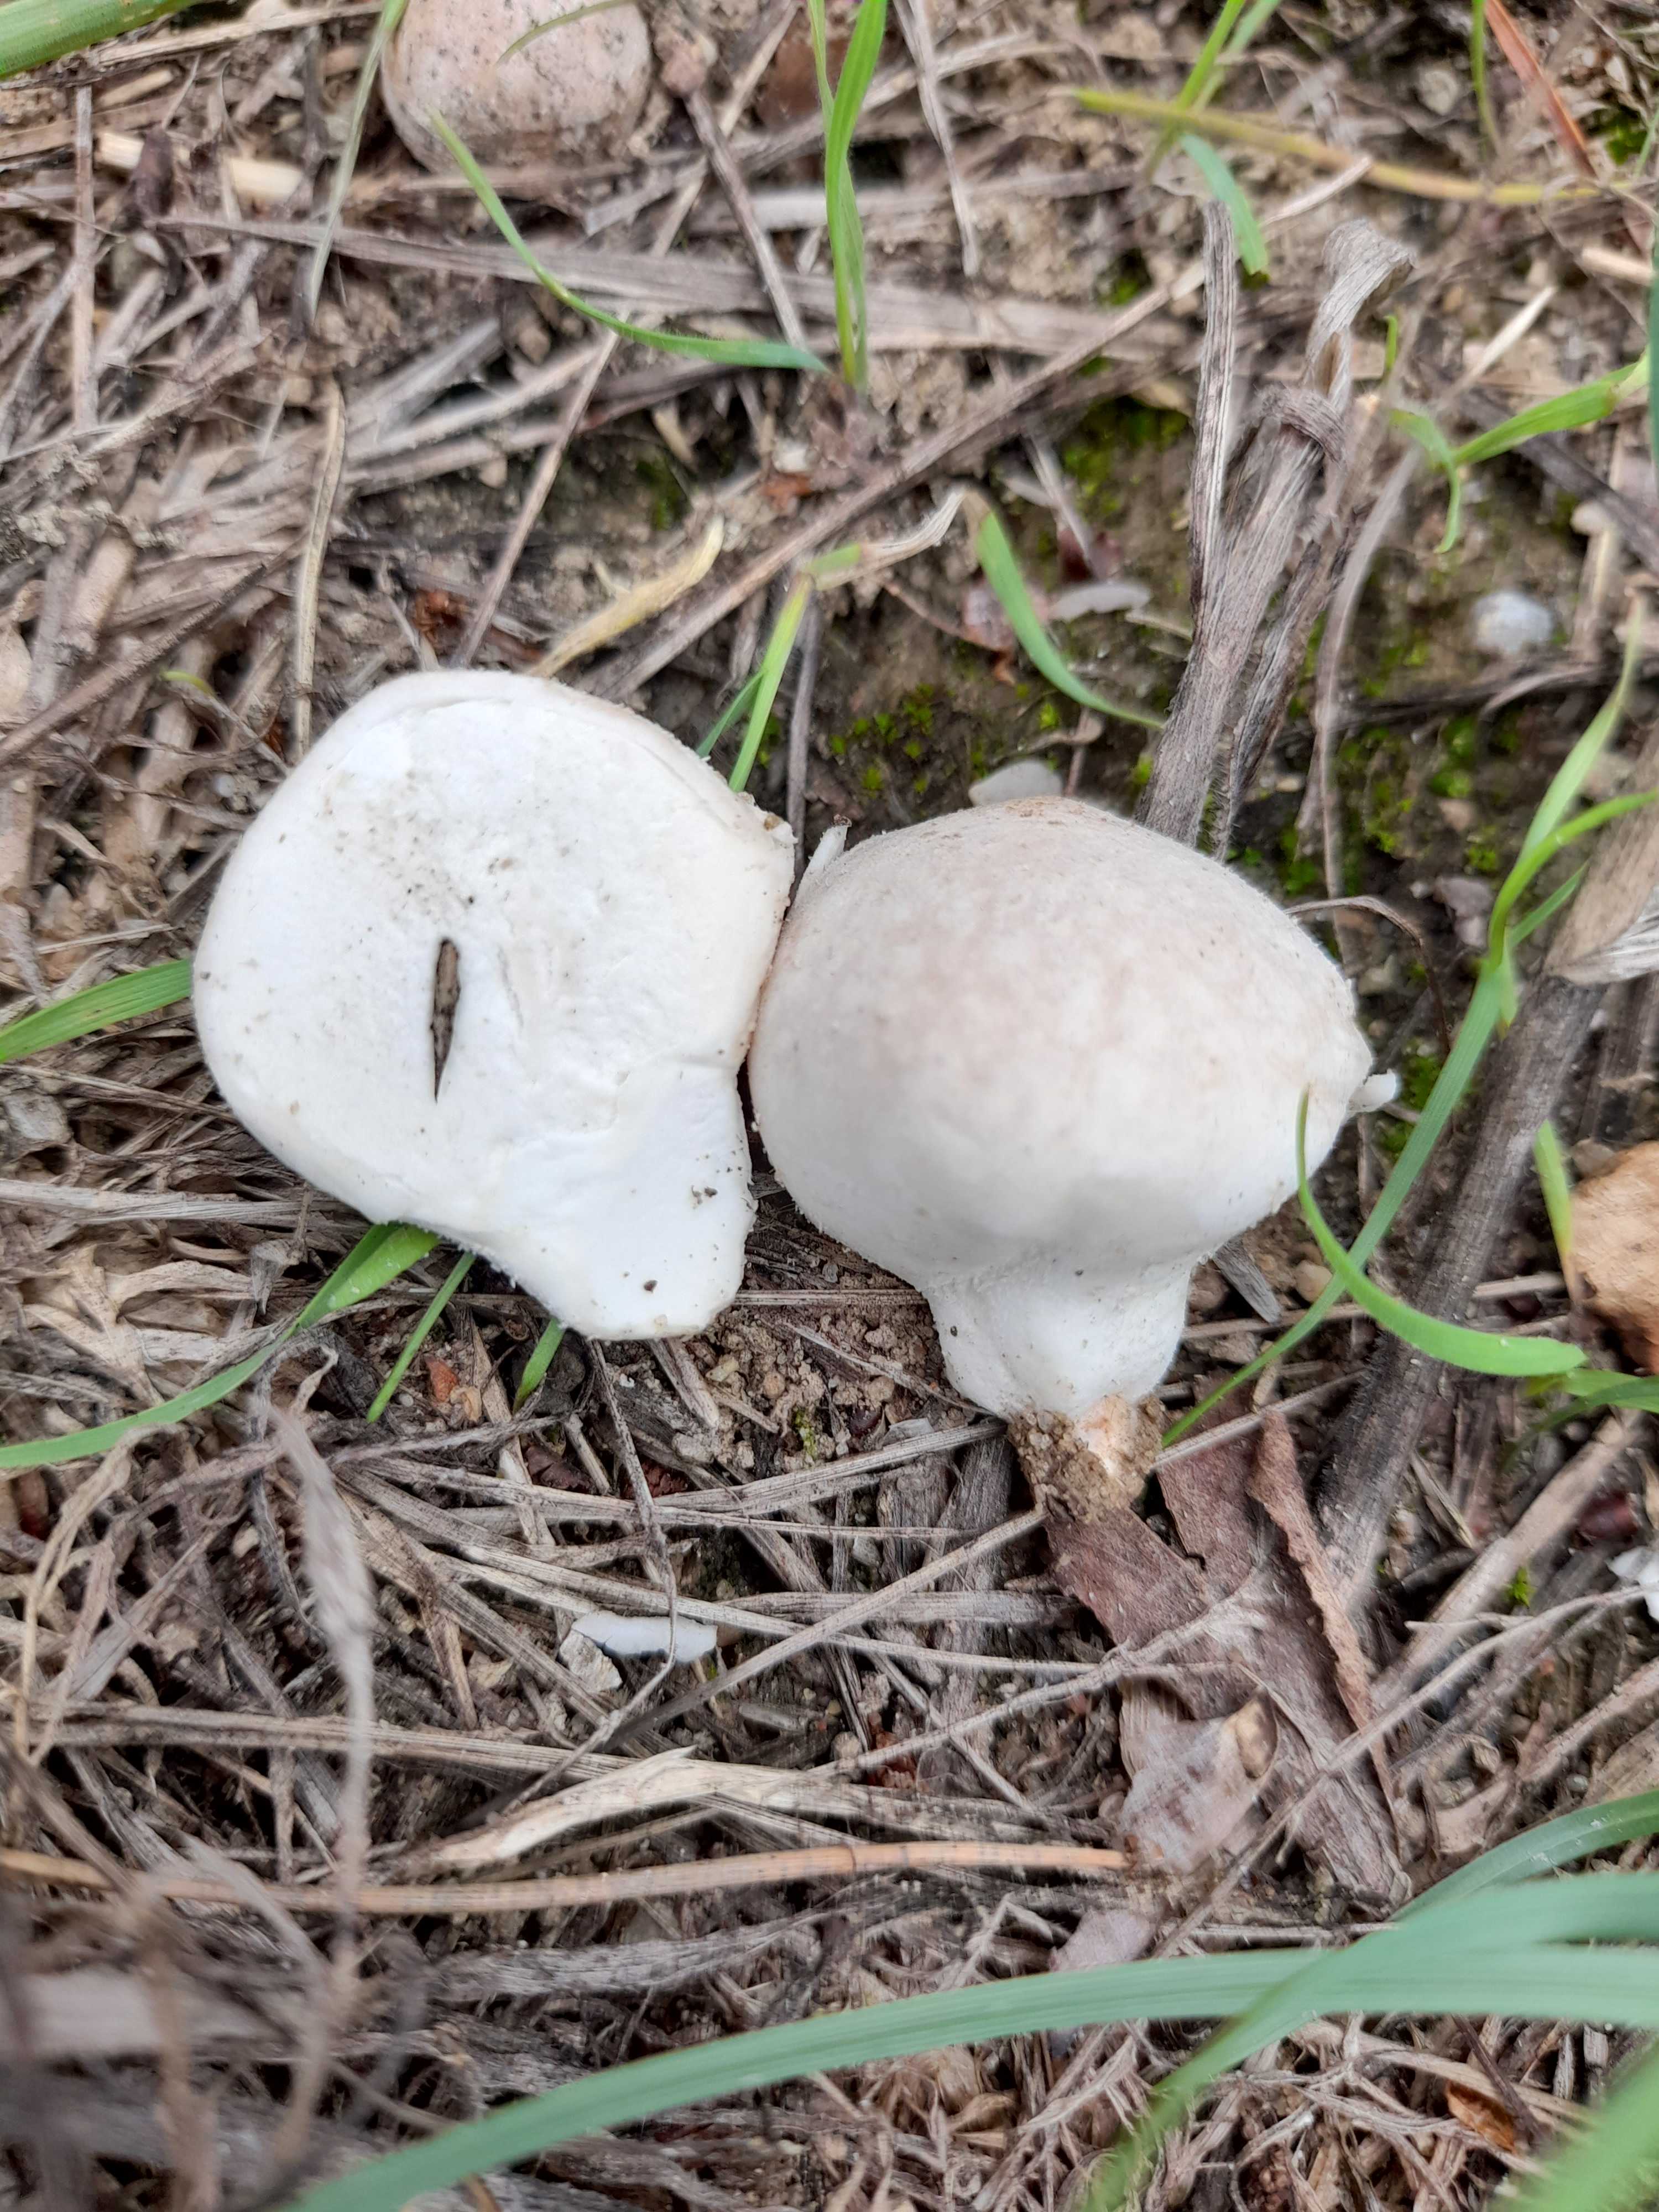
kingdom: Fungi
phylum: Basidiomycota
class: Agaricomycetes
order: Agaricales
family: Lycoperdaceae
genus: Lycoperdon
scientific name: Lycoperdon pratense
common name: flad støvbold
